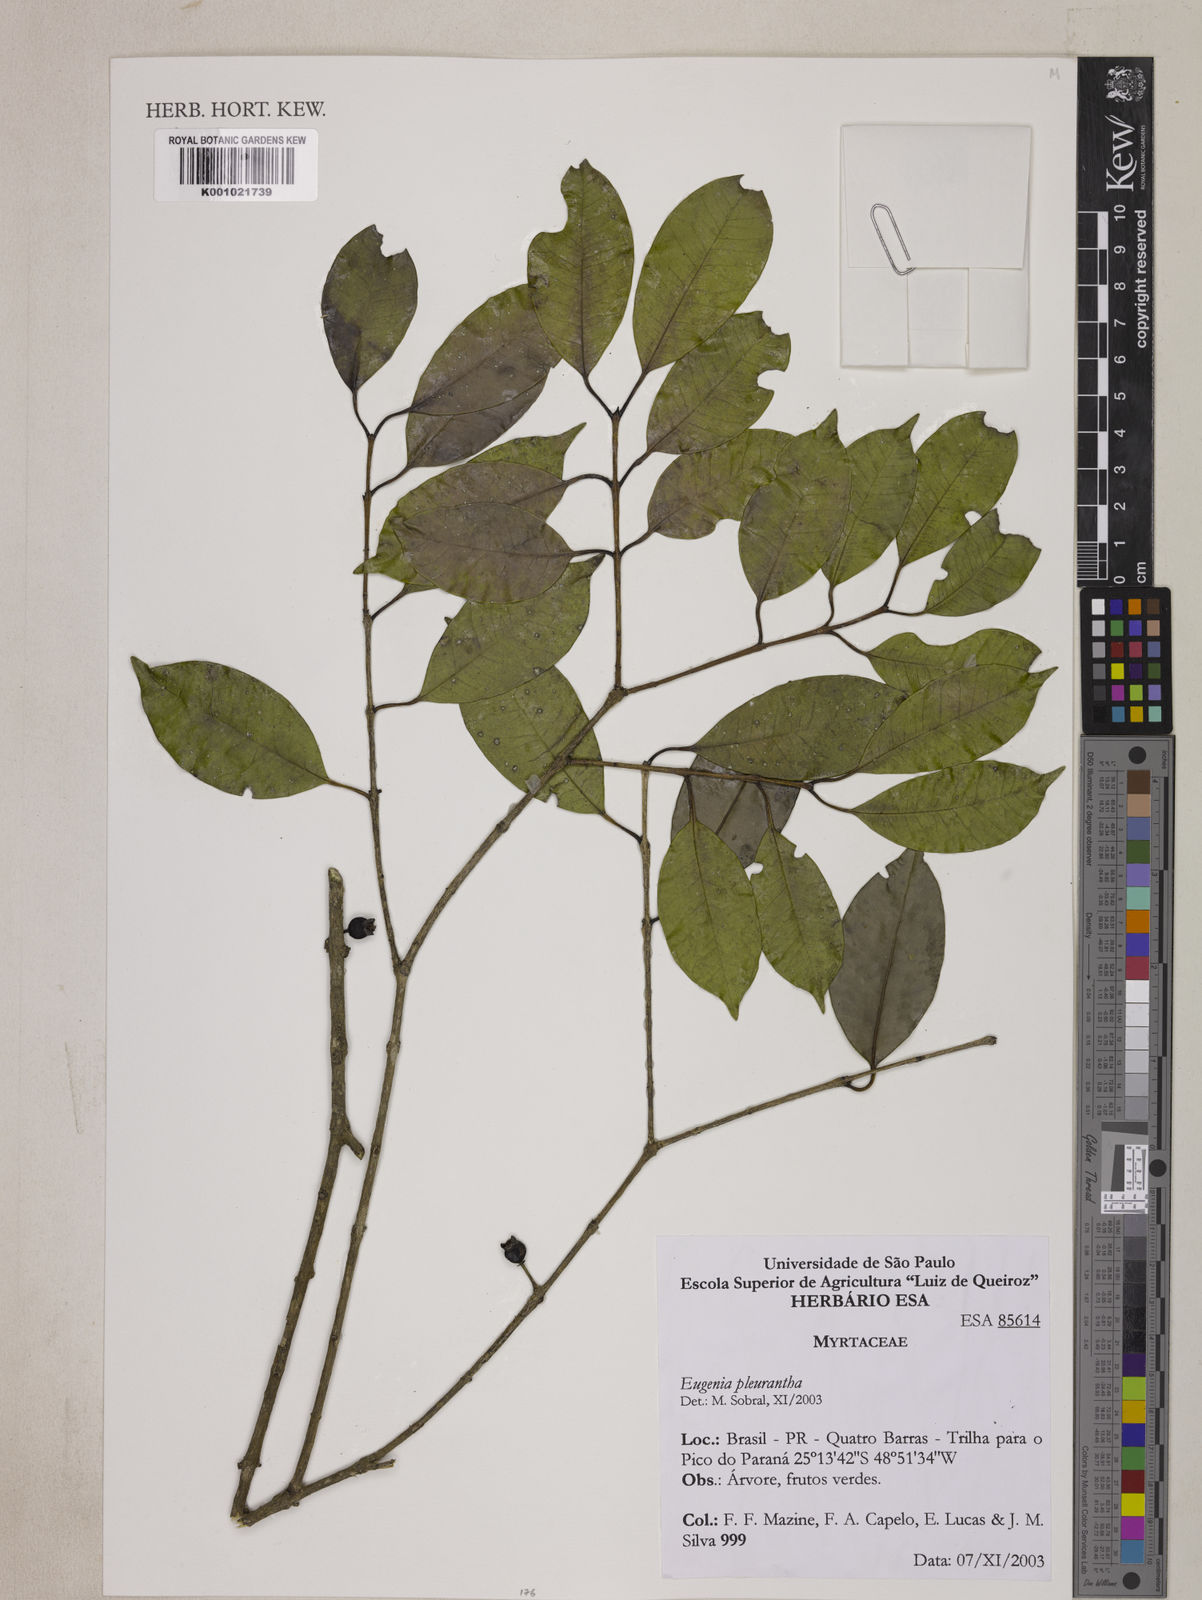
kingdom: Plantae
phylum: Tracheophyta
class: Magnoliopsida
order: Myrtales
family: Myrtaceae
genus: Eugenia
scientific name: Eugenia pleurantha
